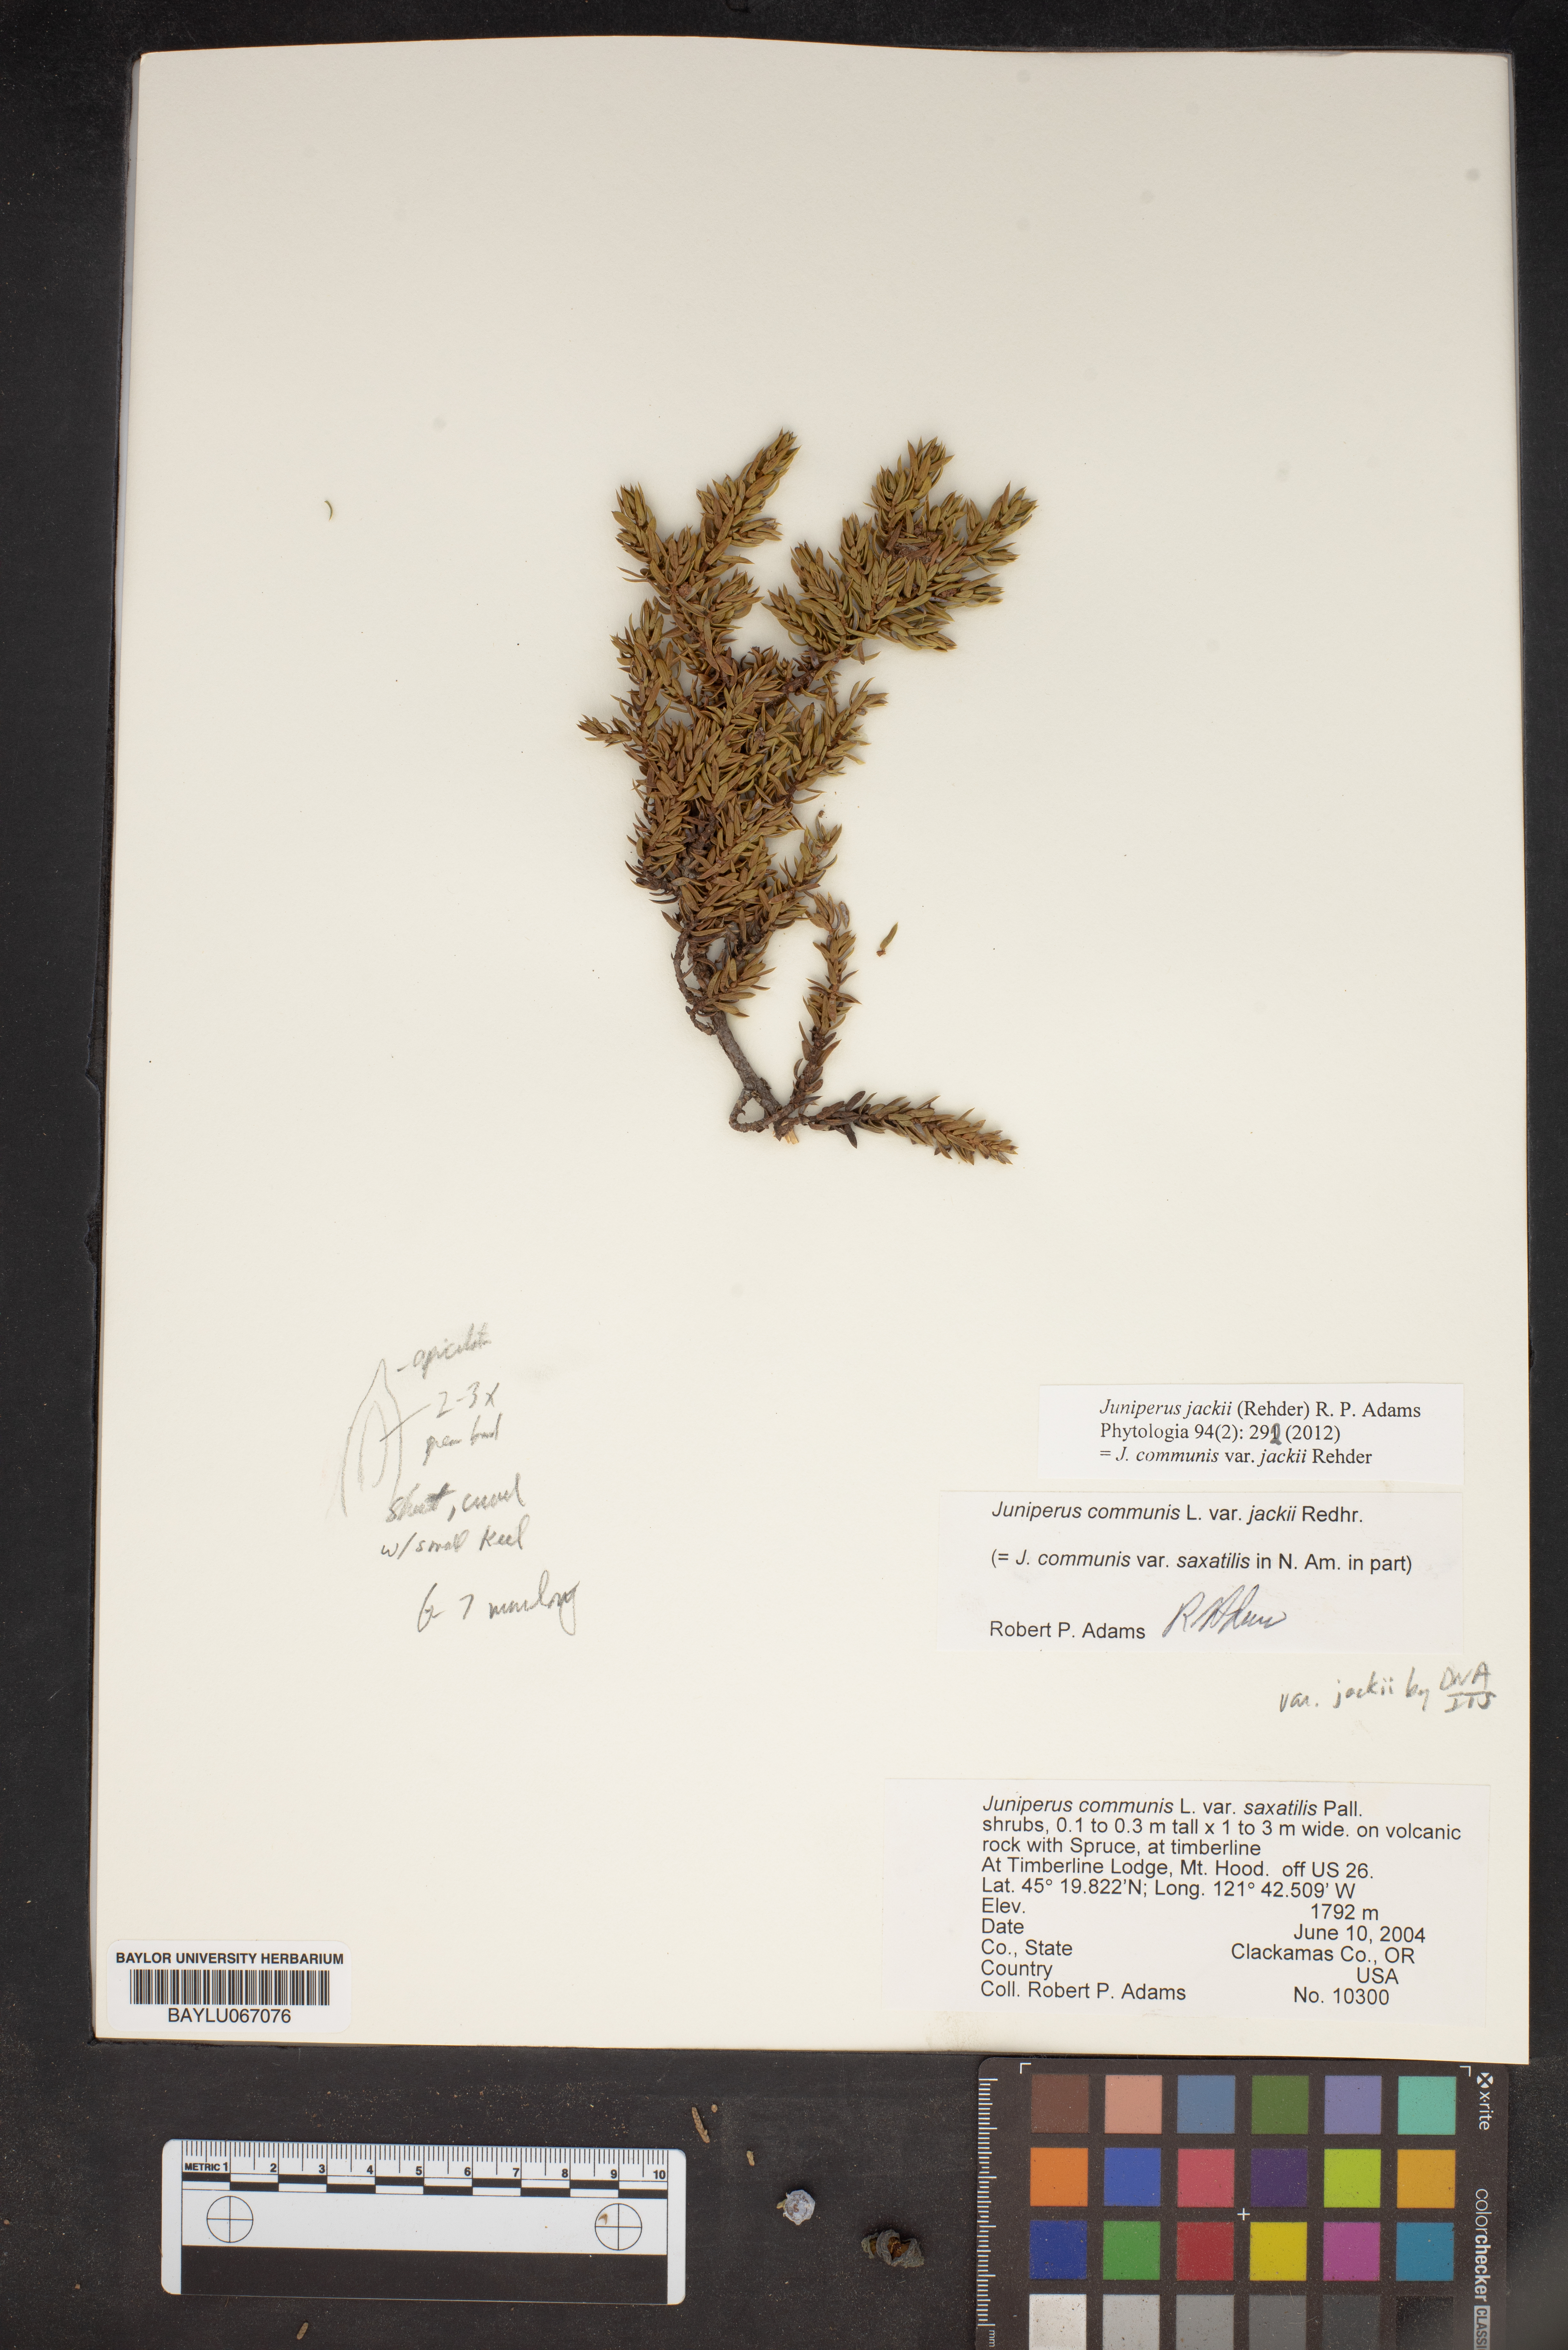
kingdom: Plantae
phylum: Tracheophyta
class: Pinopsida
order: Pinales
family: Cupressaceae
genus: Juniperus
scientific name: Juniperus communis
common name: Common juniper
